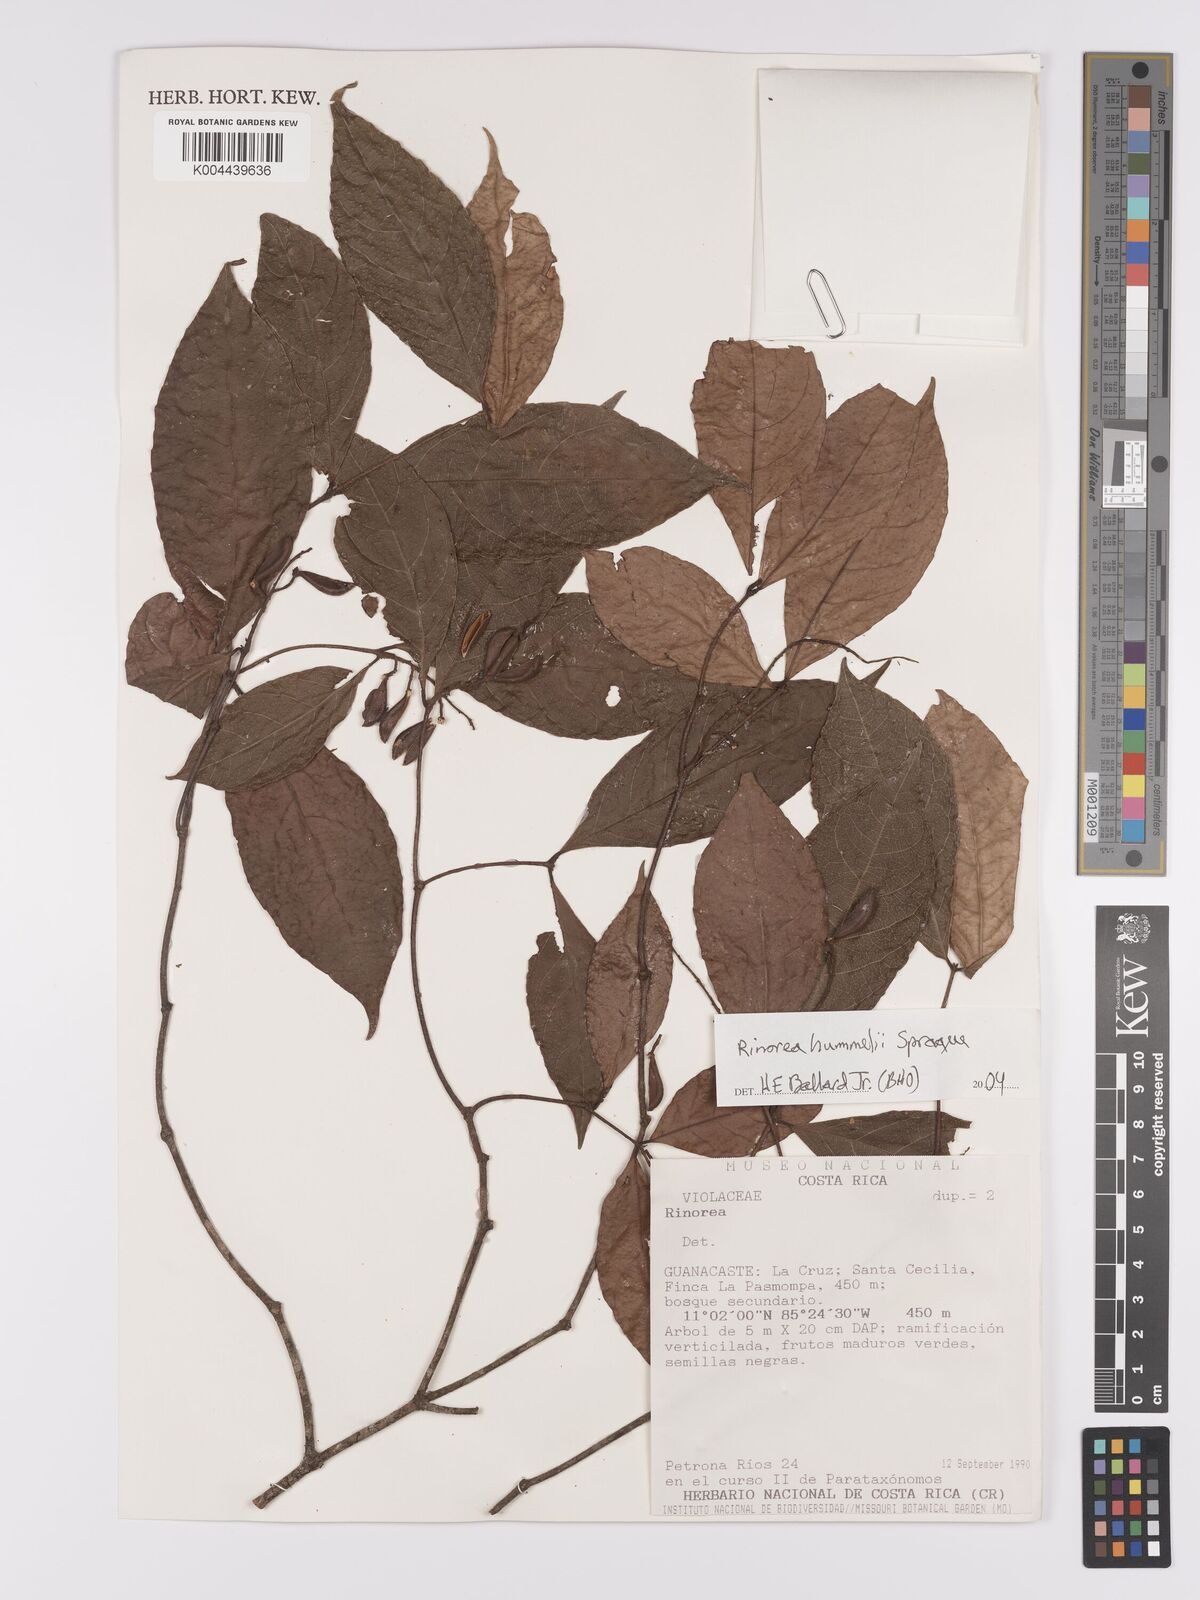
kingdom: Plantae
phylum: Tracheophyta
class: Magnoliopsida
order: Malpighiales
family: Violaceae
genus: Rinorea
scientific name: Rinorea hummelii
